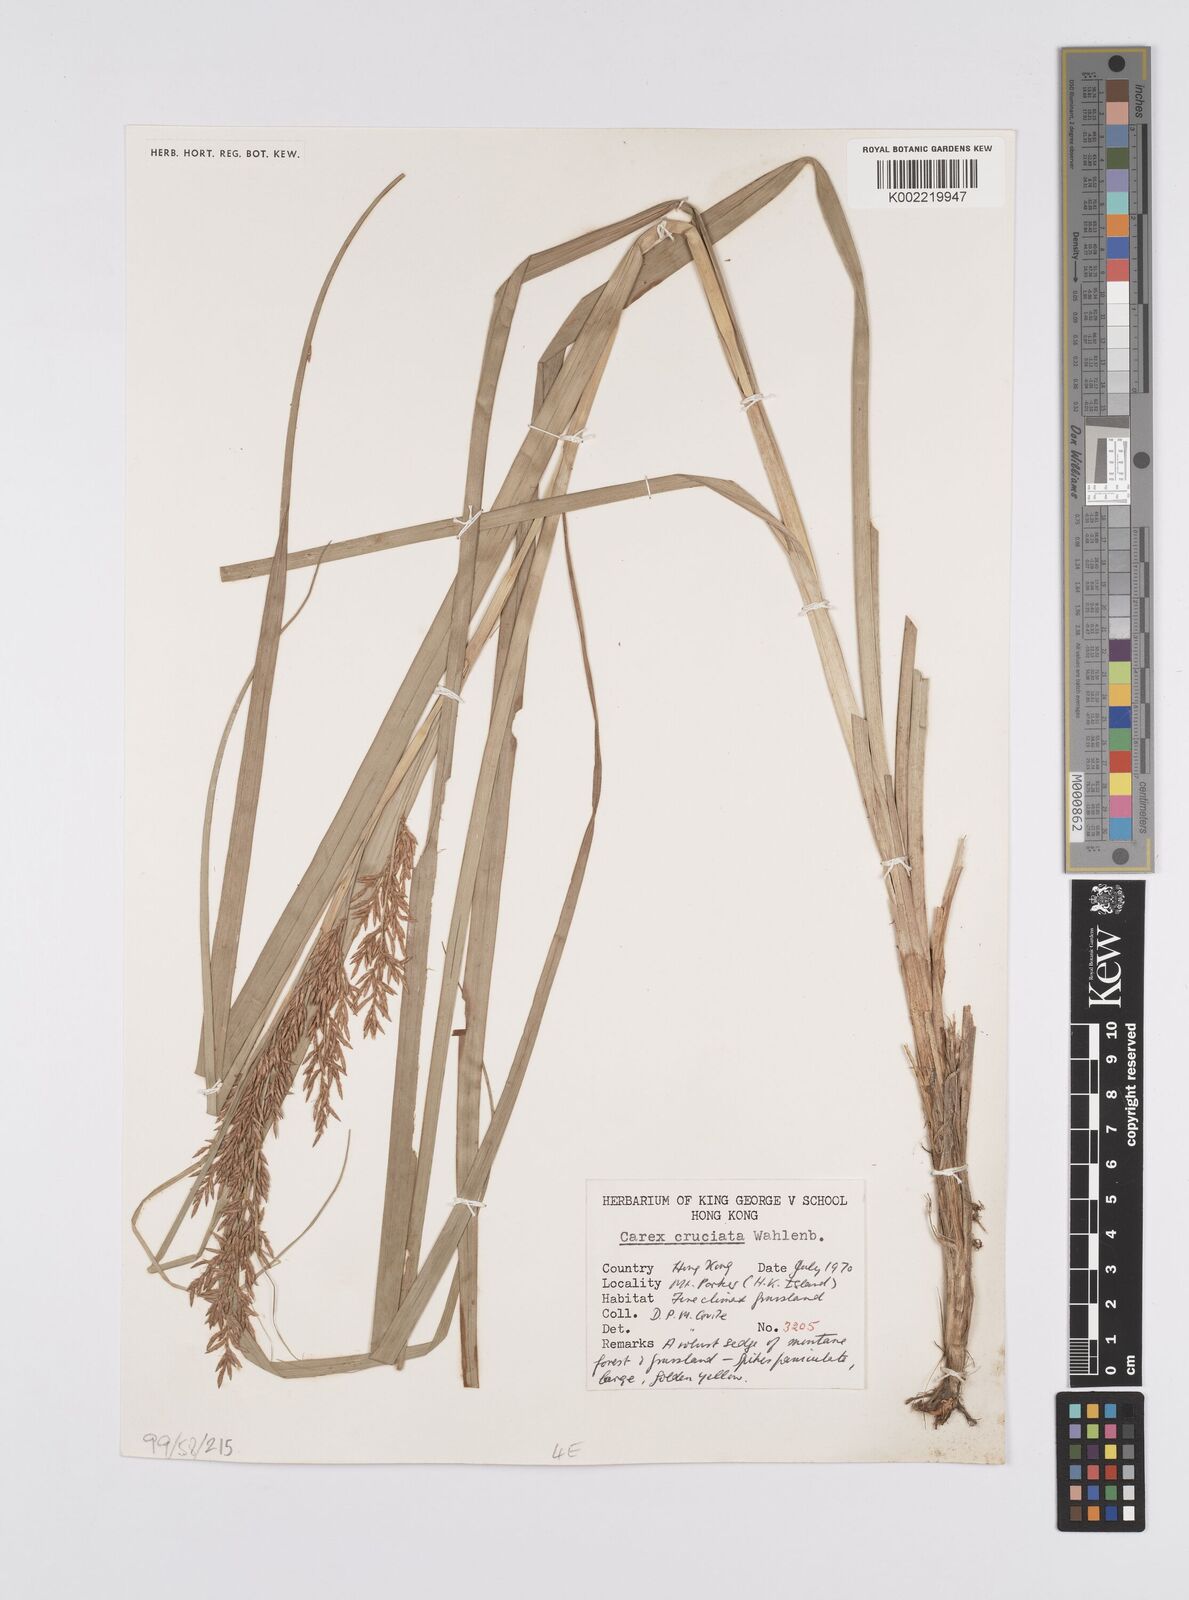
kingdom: Plantae
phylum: Tracheophyta
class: Liliopsida
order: Poales
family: Cyperaceae
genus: Carex
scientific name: Carex cruciata
